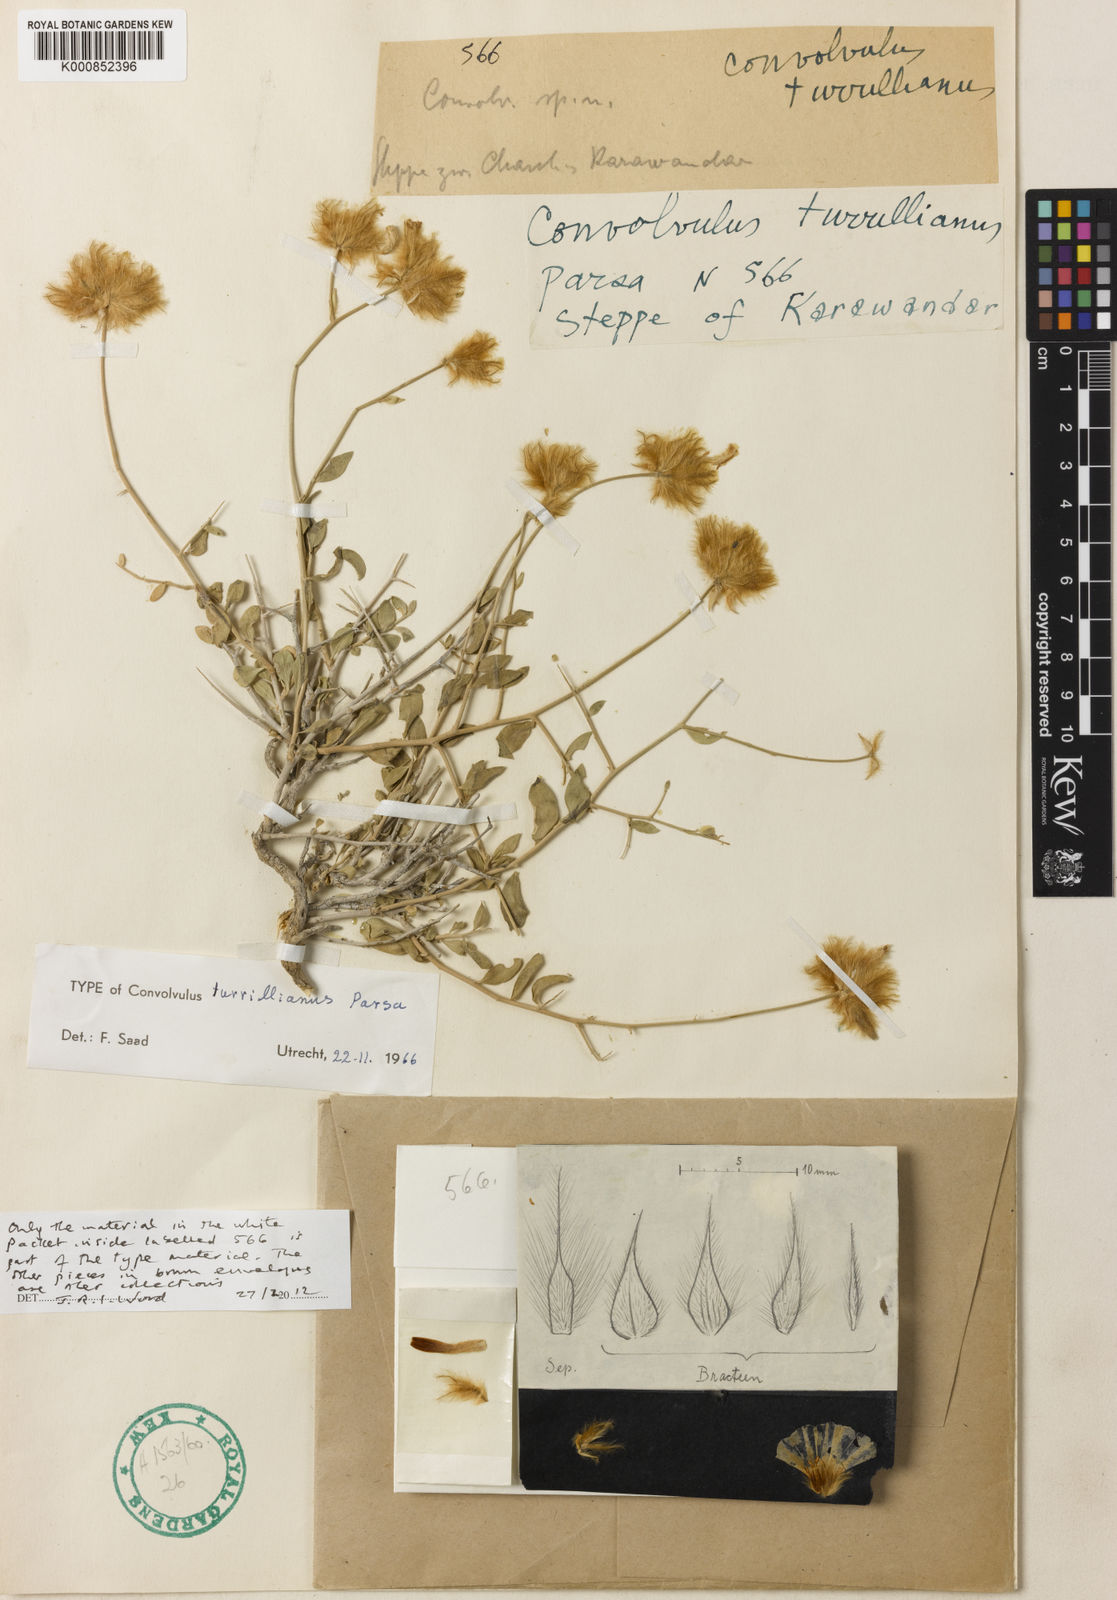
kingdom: Plantae
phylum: Tracheophyta
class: Magnoliopsida
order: Solanales
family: Convolvulaceae
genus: Convolvulus
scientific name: Convolvulus turrillianus
